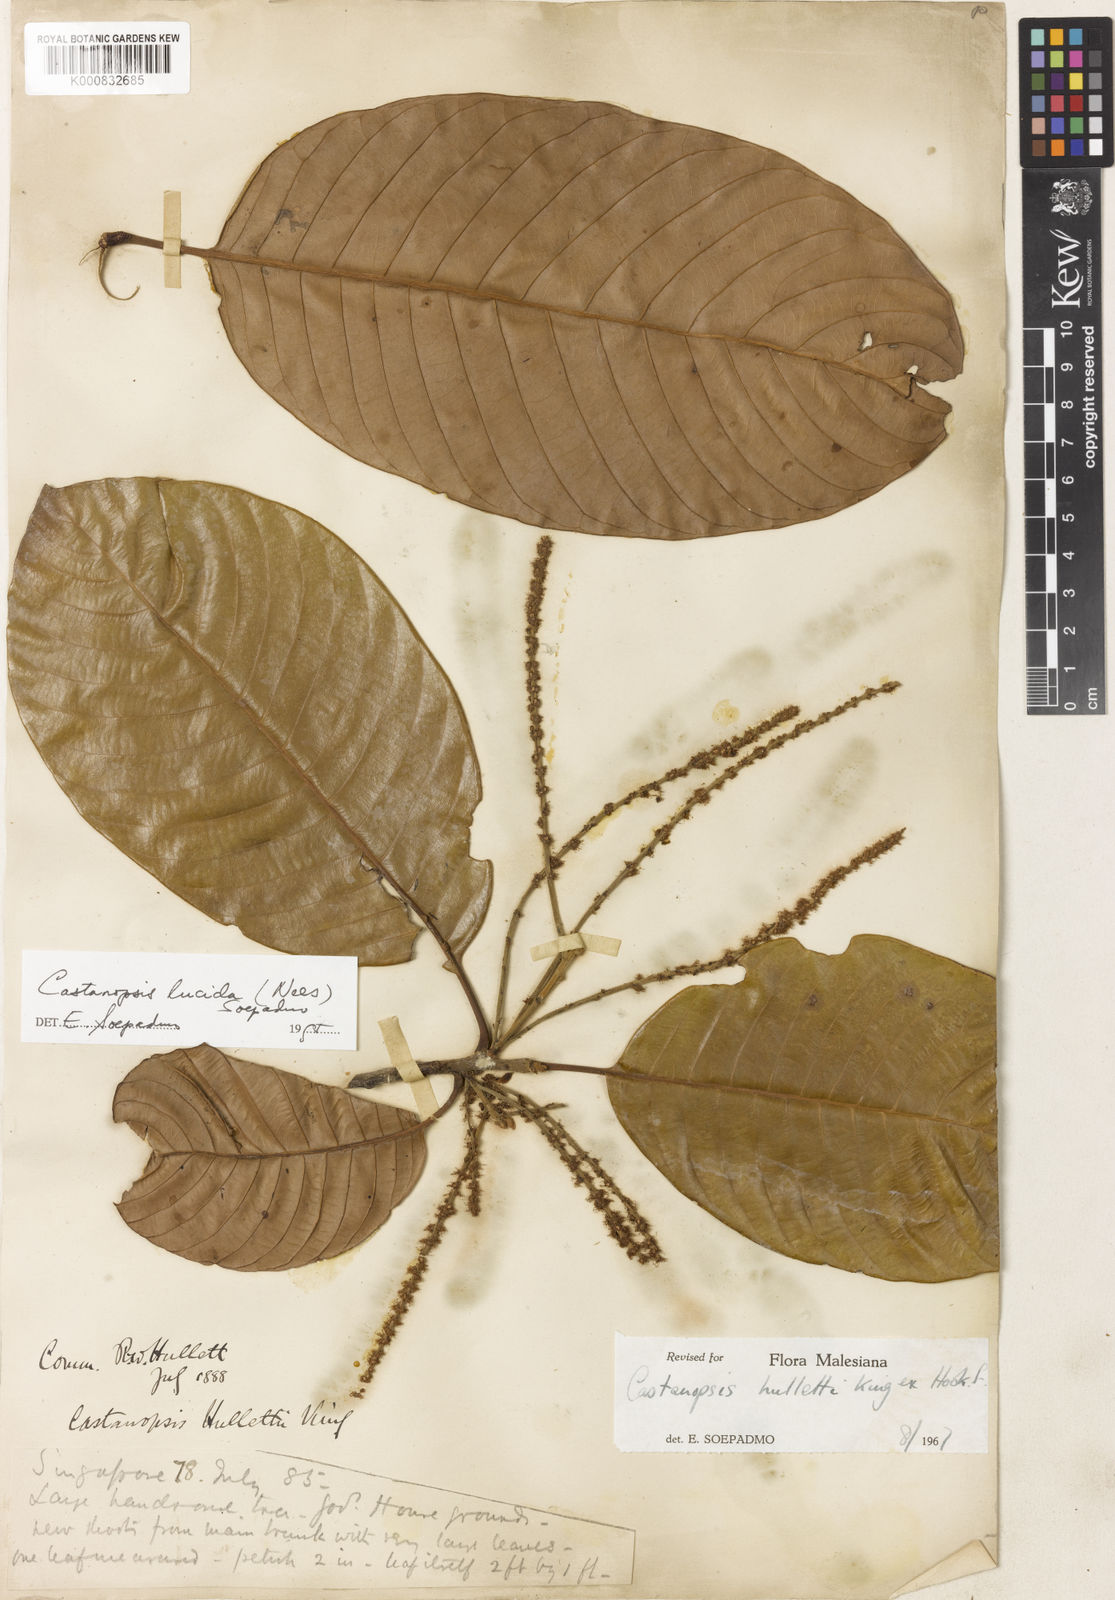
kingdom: Plantae
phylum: Tracheophyta
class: Magnoliopsida
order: Fagales
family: Fagaceae
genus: Castanopsis
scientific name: Castanopsis lucida
